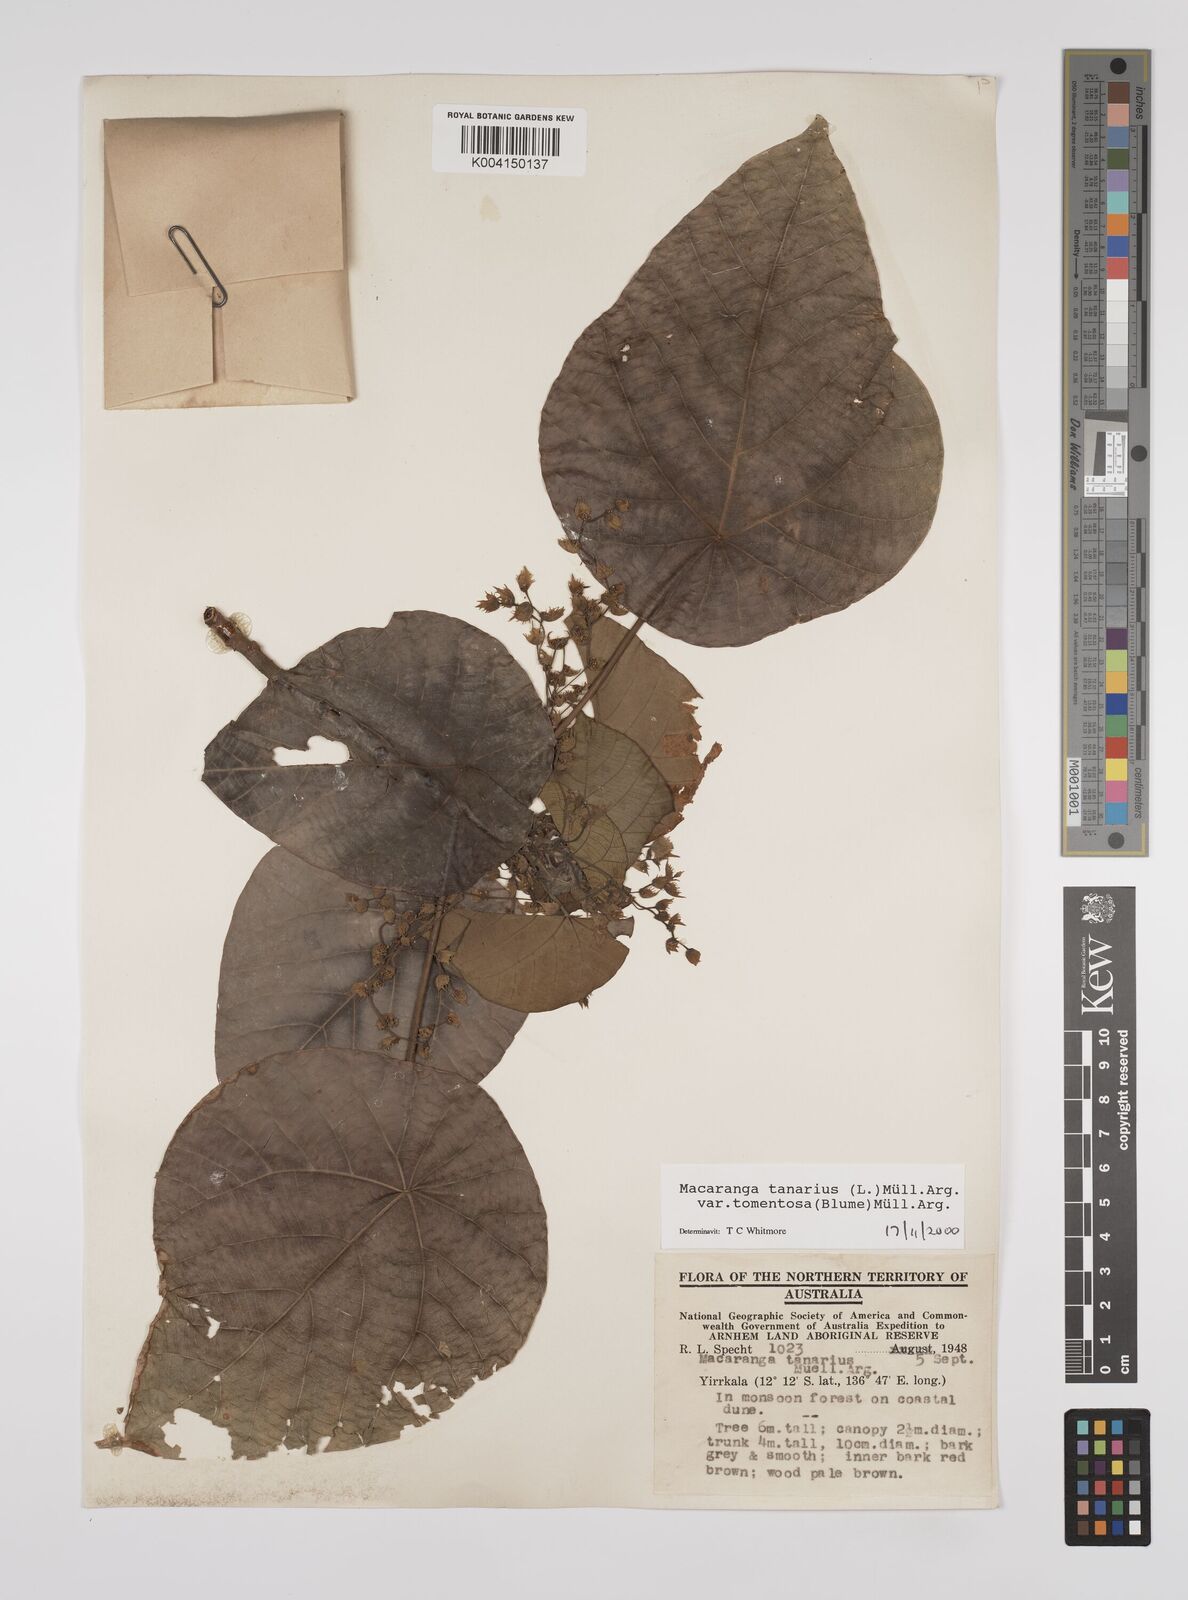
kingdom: Plantae
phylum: Tracheophyta
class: Magnoliopsida
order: Malpighiales
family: Euphorbiaceae
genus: Macaranga
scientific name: Macaranga tanarius
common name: Parasol leaf tree
